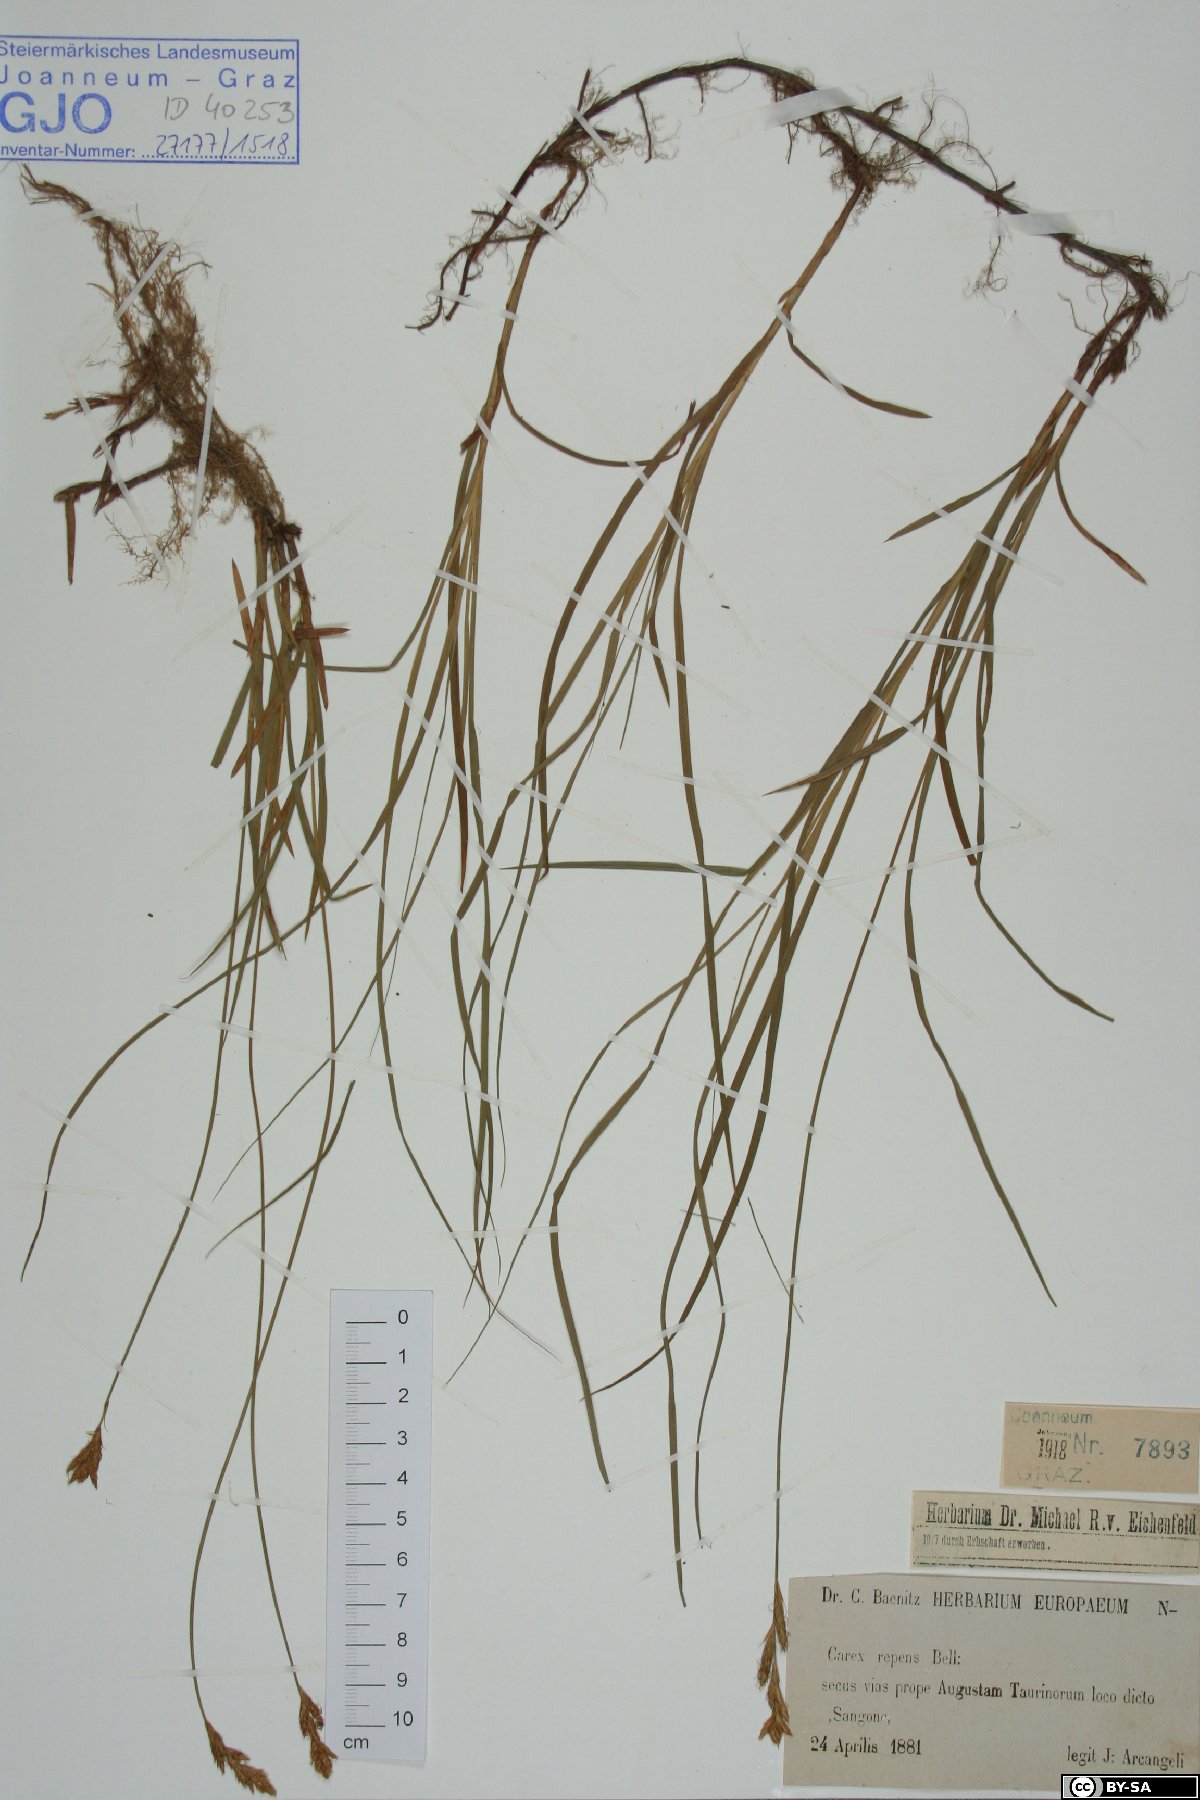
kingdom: Plantae
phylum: Tracheophyta
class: Liliopsida
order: Poales
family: Cyperaceae
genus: Carex
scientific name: Carex repens
